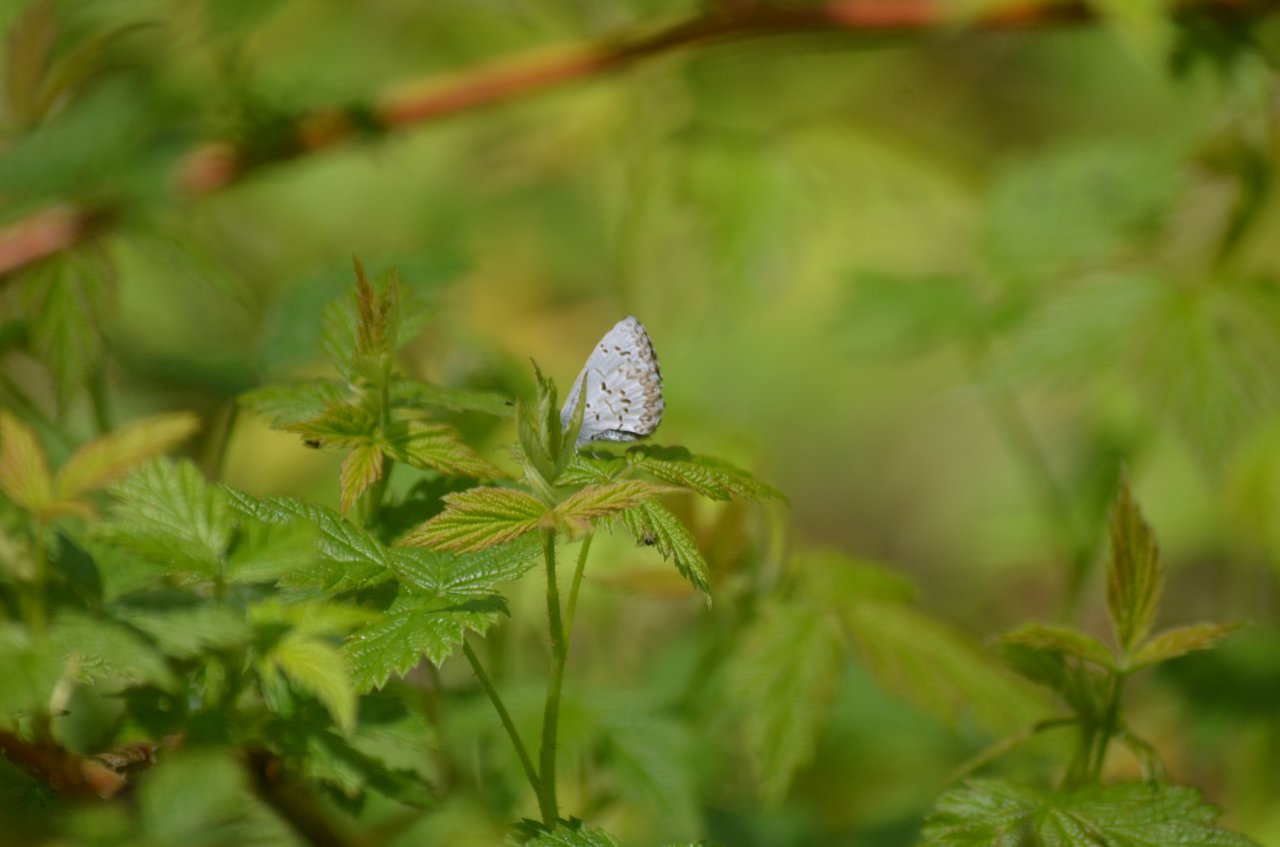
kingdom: Animalia
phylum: Arthropoda
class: Insecta
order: Lepidoptera
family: Lycaenidae
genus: Celastrina
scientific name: Celastrina
